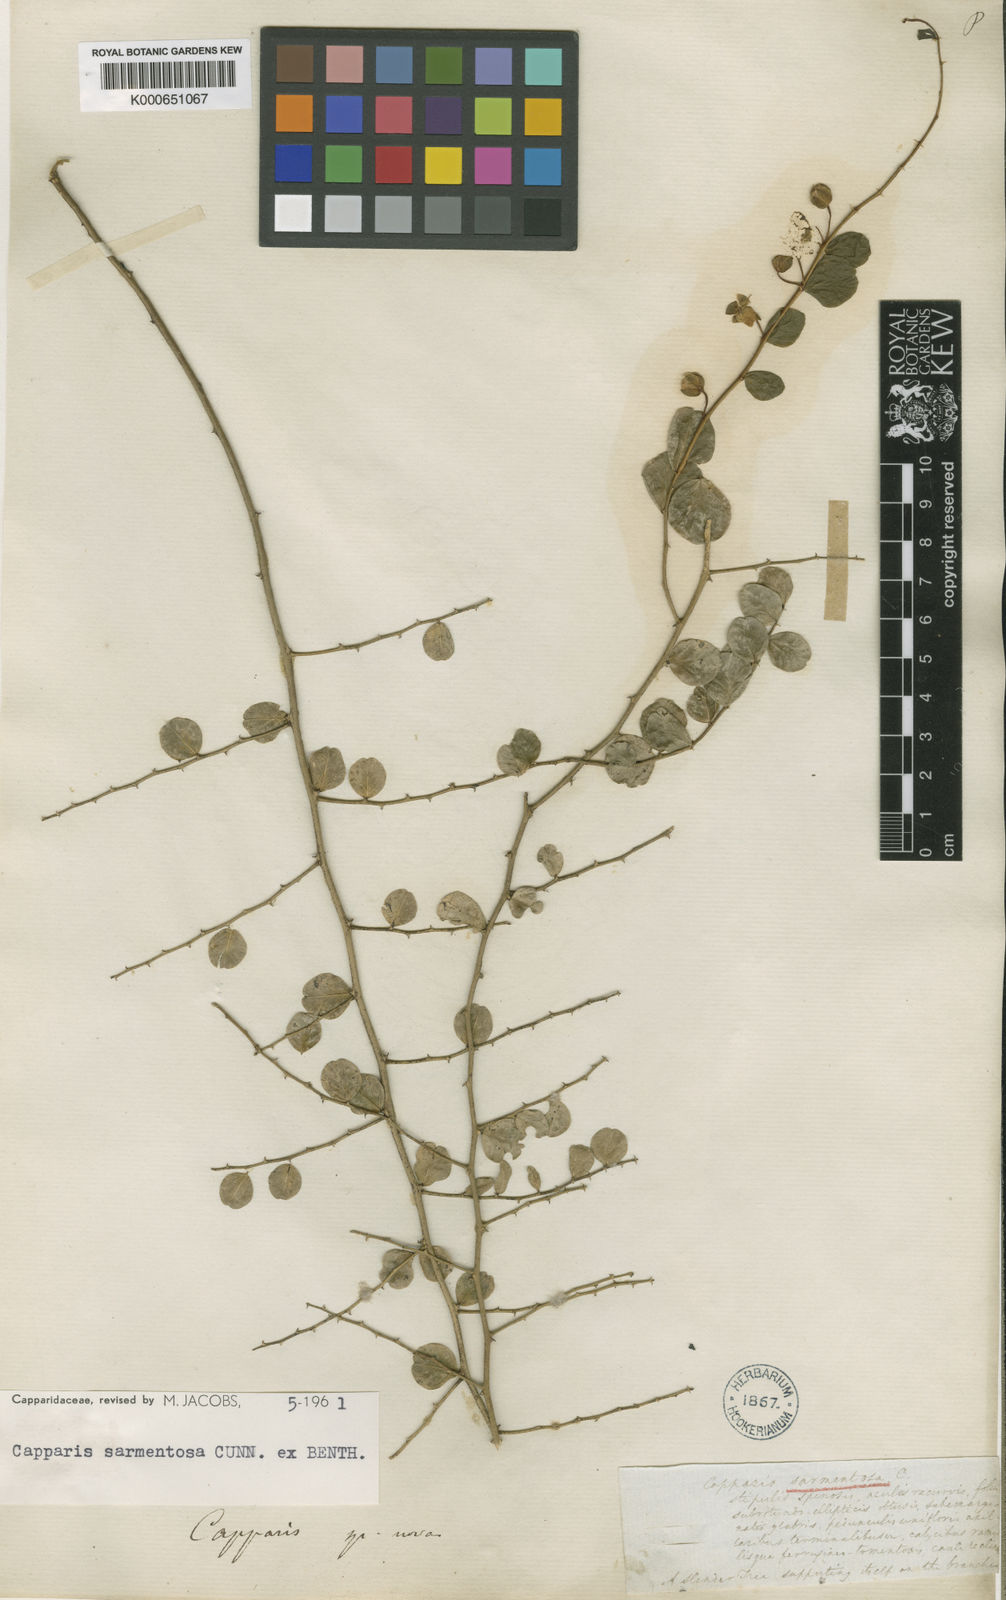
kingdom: Plantae
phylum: Tracheophyta
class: Magnoliopsida
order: Brassicales
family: Capparaceae
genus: Capparis
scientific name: Capparis sarmentosa
